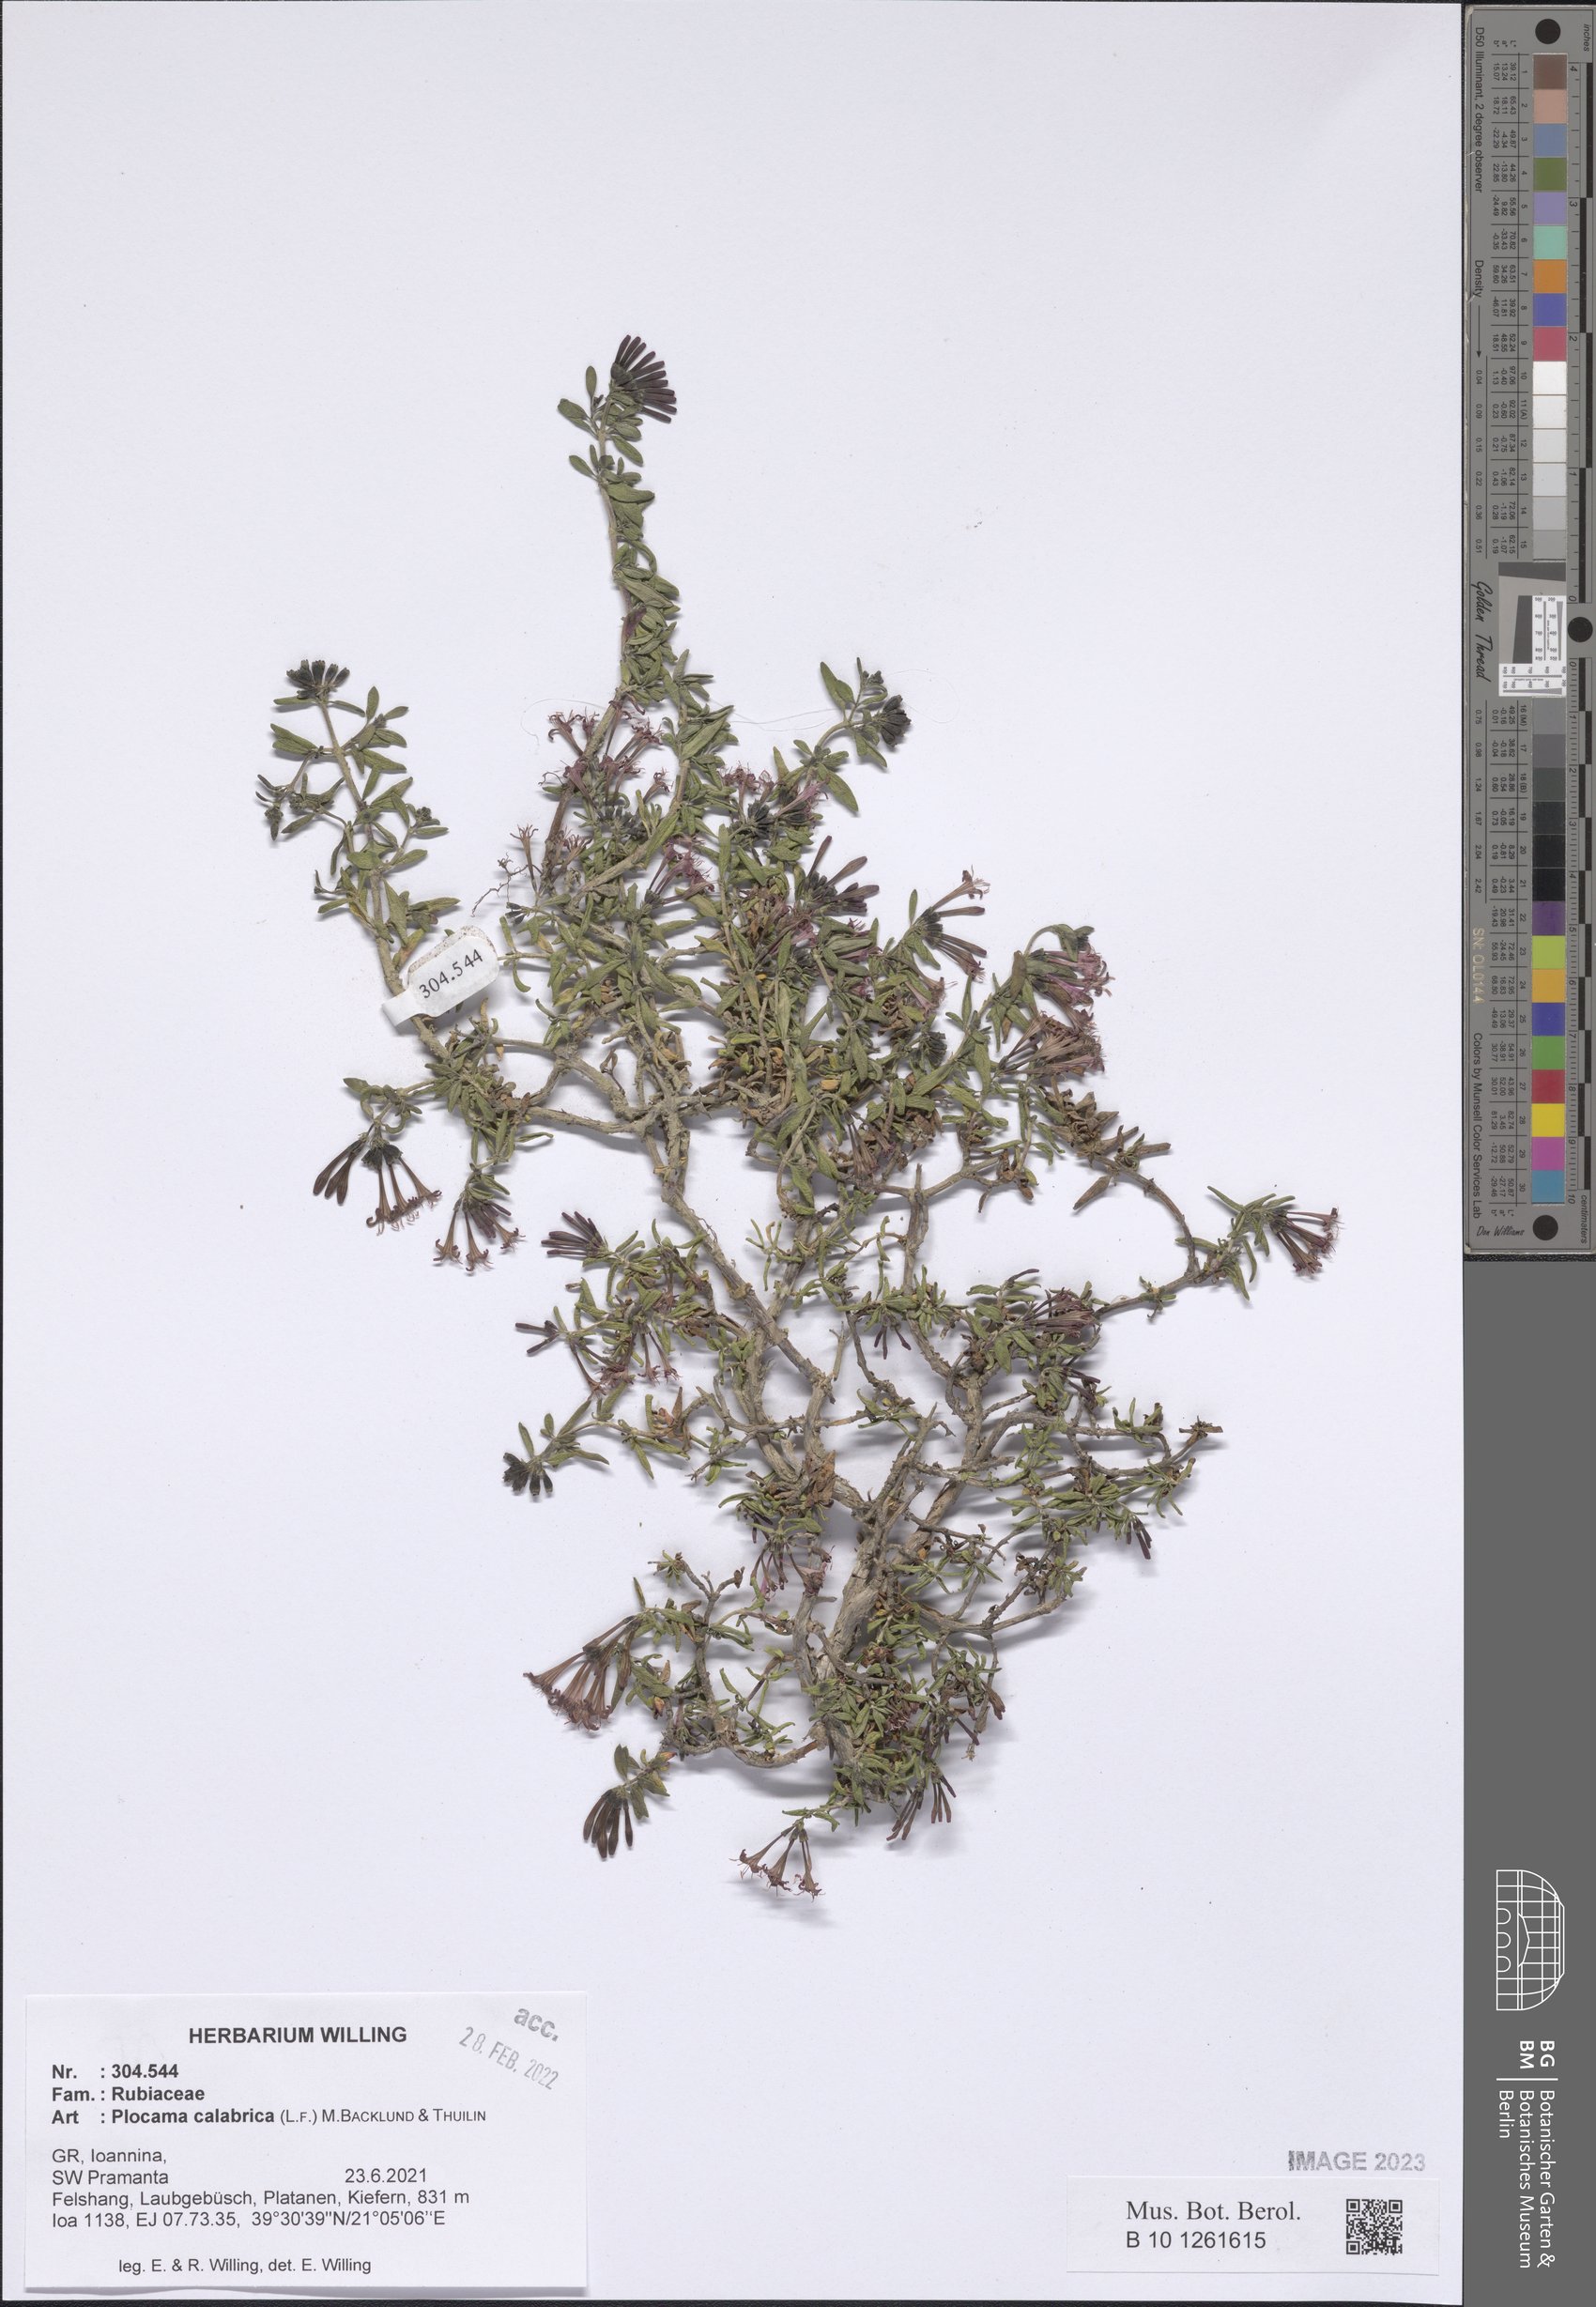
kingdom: Plantae
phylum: Tracheophyta
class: Magnoliopsida
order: Gentianales
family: Rubiaceae
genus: Plocama
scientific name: Plocama calabrica
